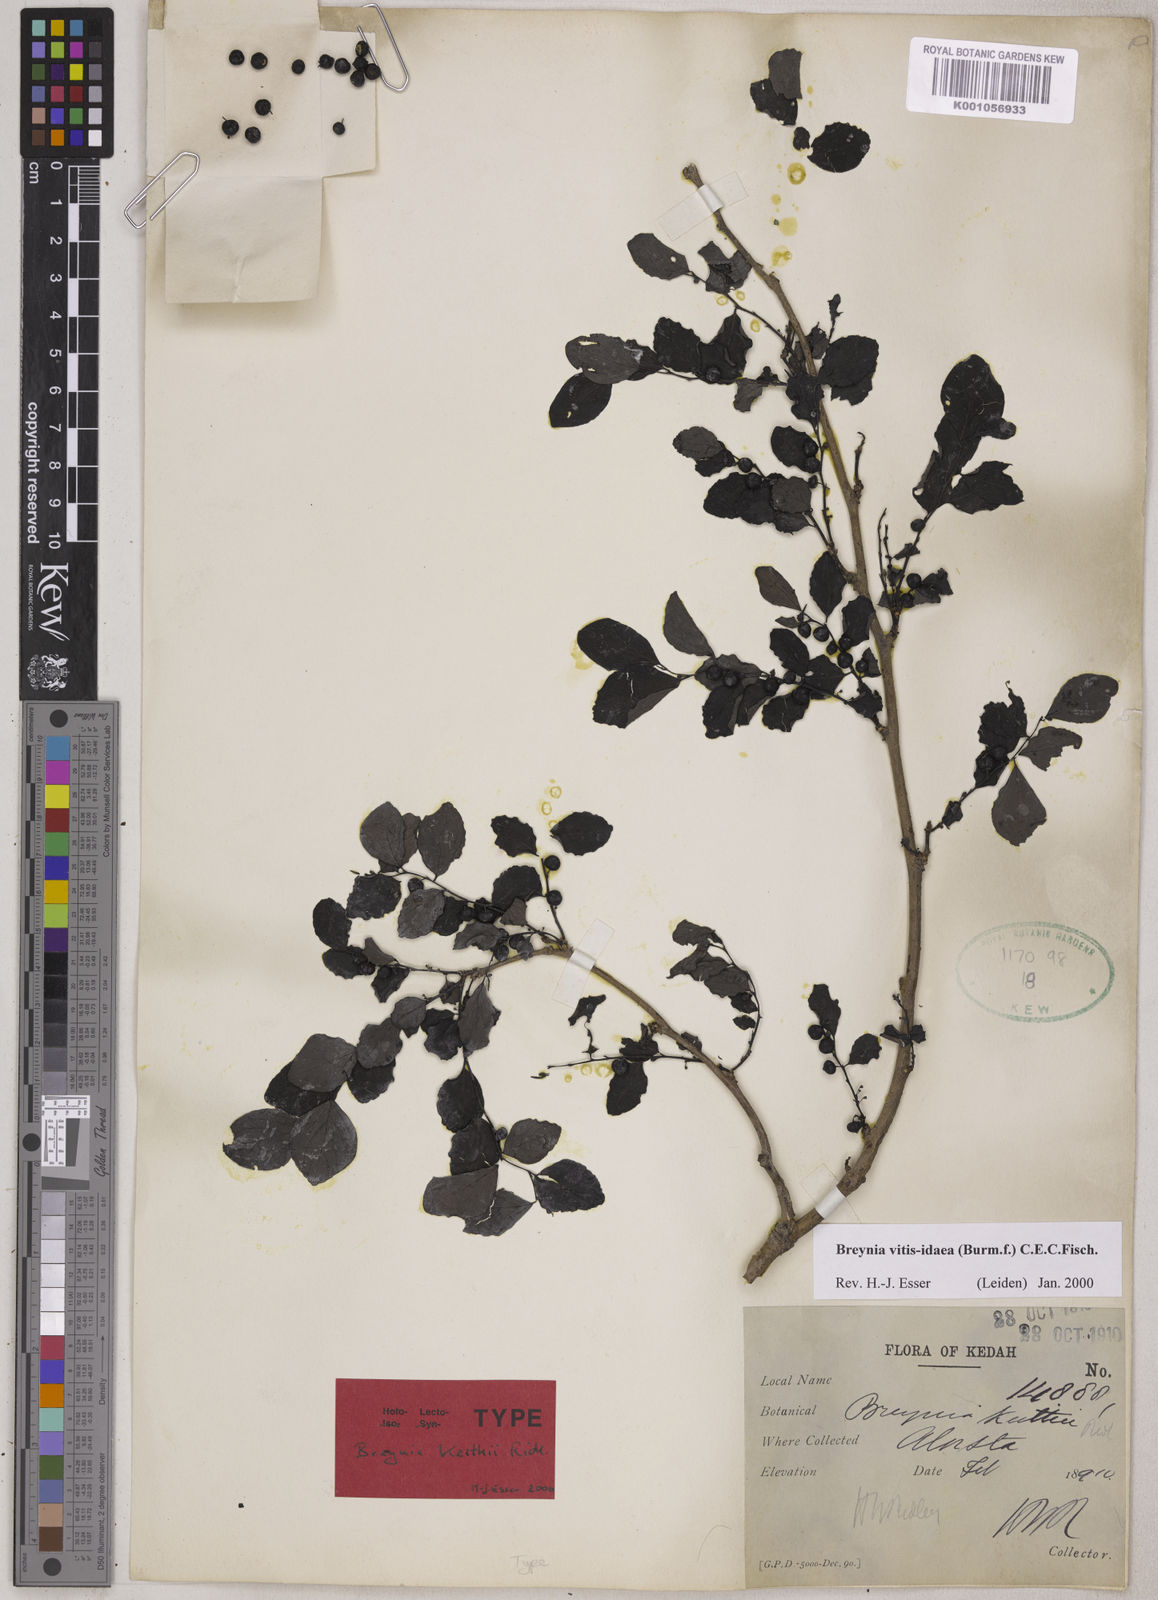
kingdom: Plantae
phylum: Tracheophyta
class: Magnoliopsida
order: Malpighiales
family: Phyllanthaceae
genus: Breynia
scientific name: Breynia vitis-idaea
